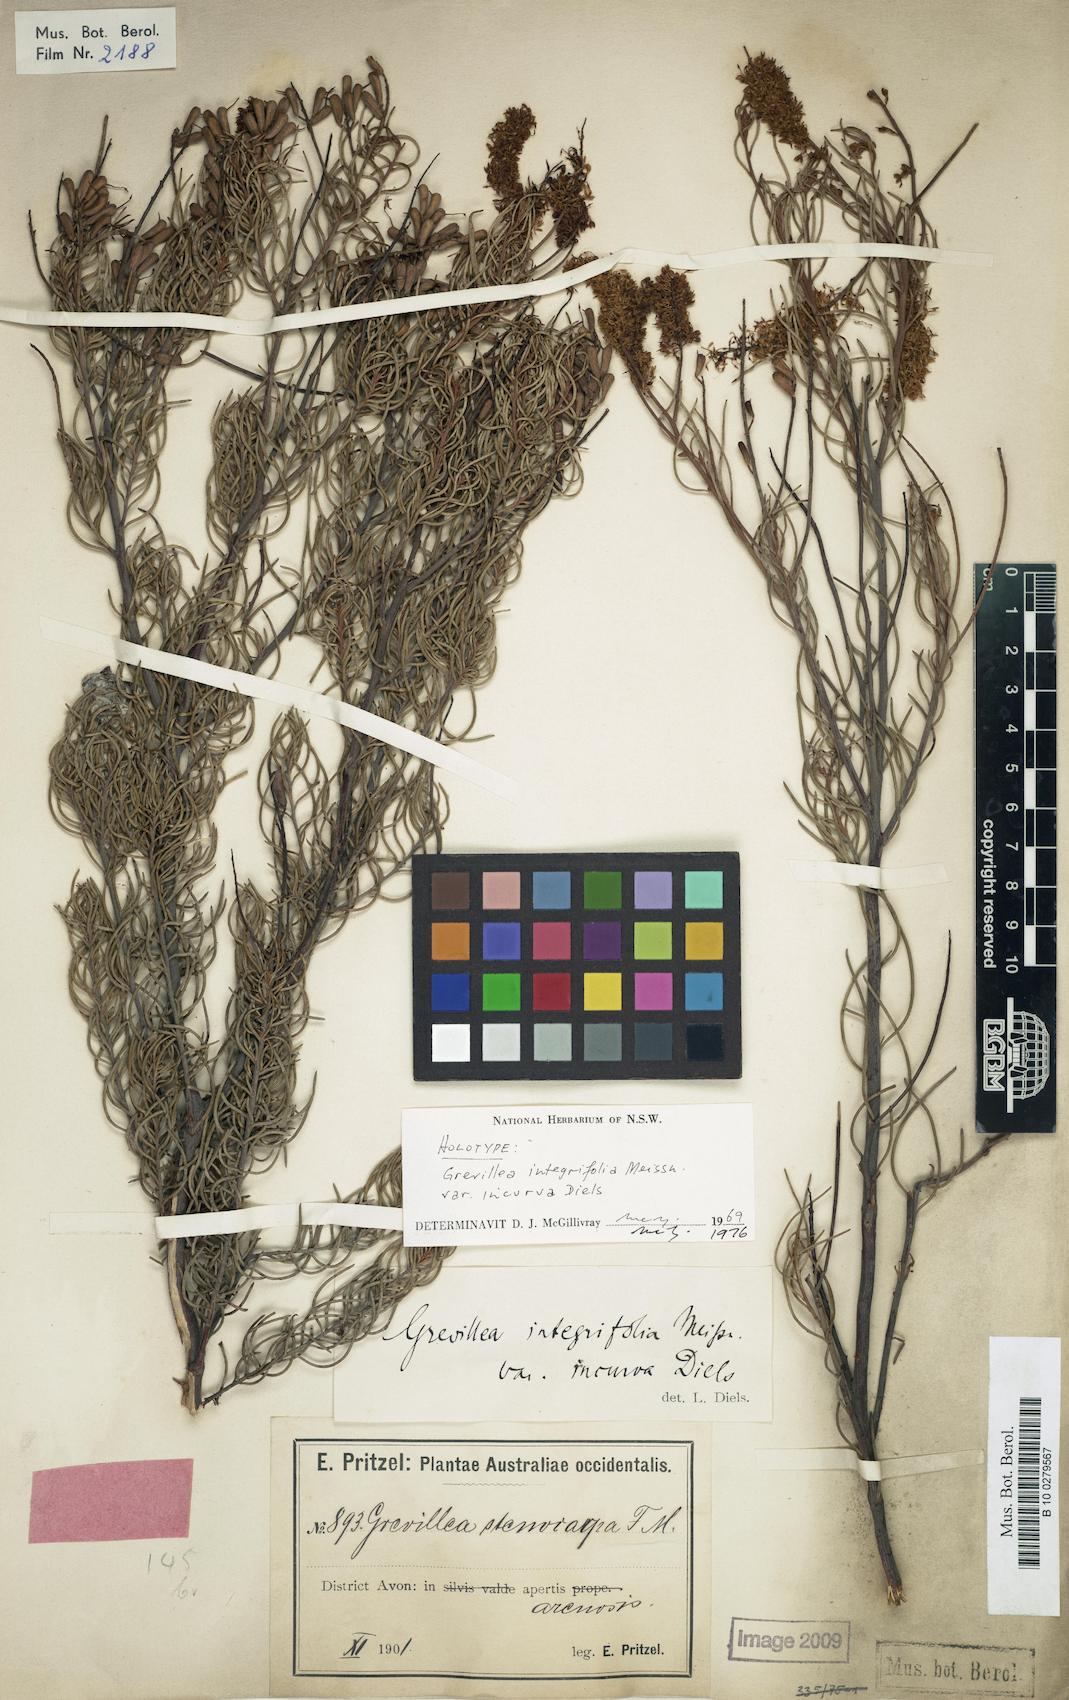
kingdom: Plantae
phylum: Tracheophyta
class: Magnoliopsida
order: Proteales
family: Proteaceae
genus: Grevillea
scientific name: Grevillea incurva
